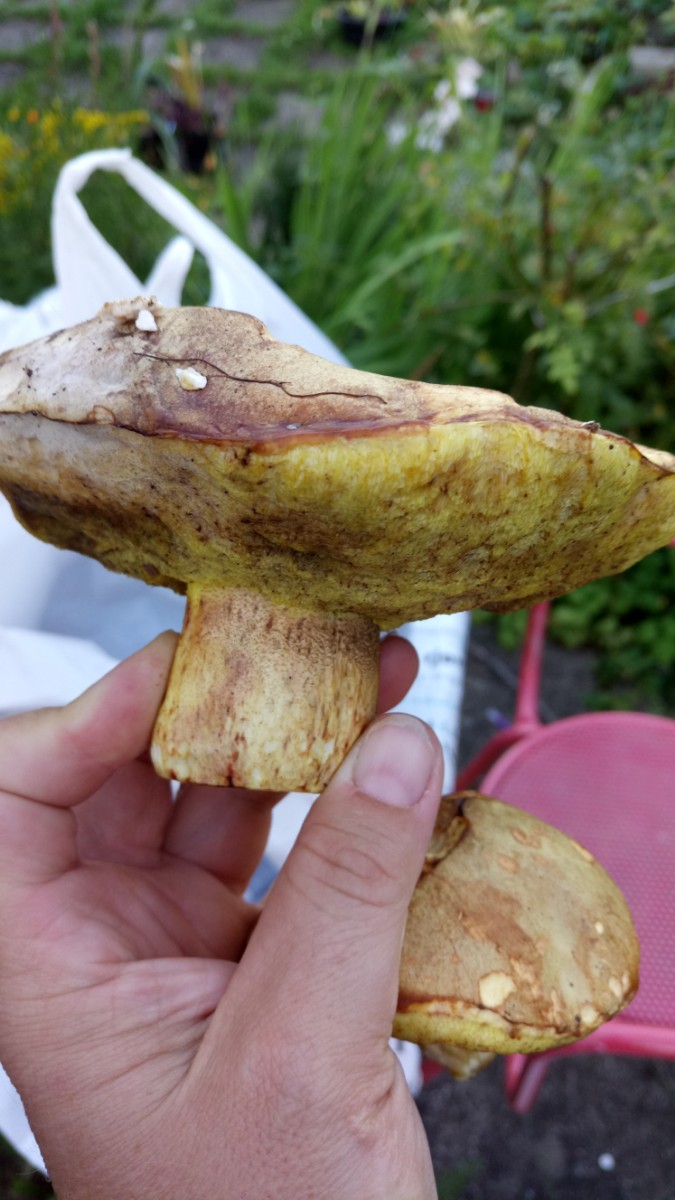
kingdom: Fungi
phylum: Basidiomycota
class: Agaricomycetes
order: Boletales
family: Boletaceae
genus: Butyriboletus
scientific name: Butyriboletus appendiculatus
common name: tenstokket rørhat
